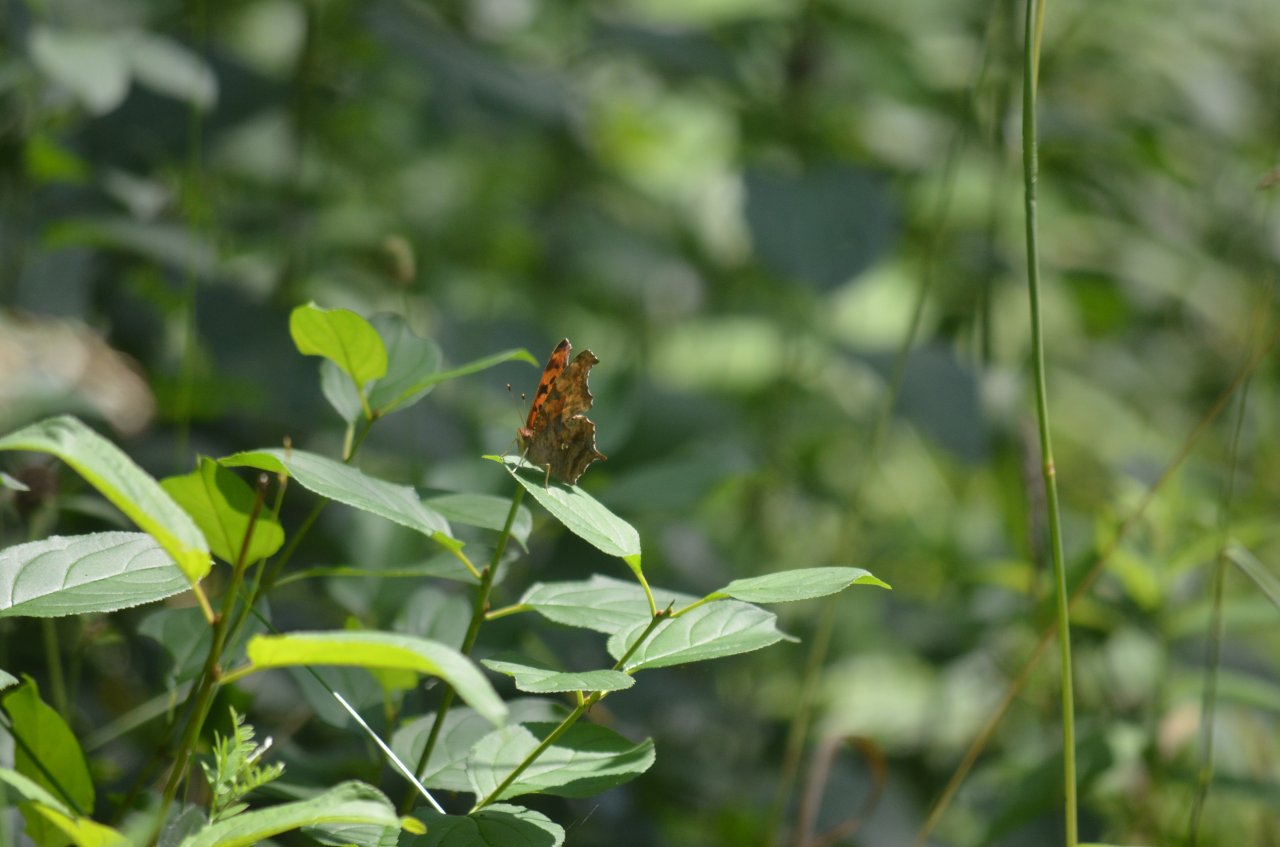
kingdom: Animalia
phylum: Arthropoda
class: Insecta
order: Lepidoptera
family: Nymphalidae
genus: Polygonia
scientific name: Polygonia interrogationis
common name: Question Mark
